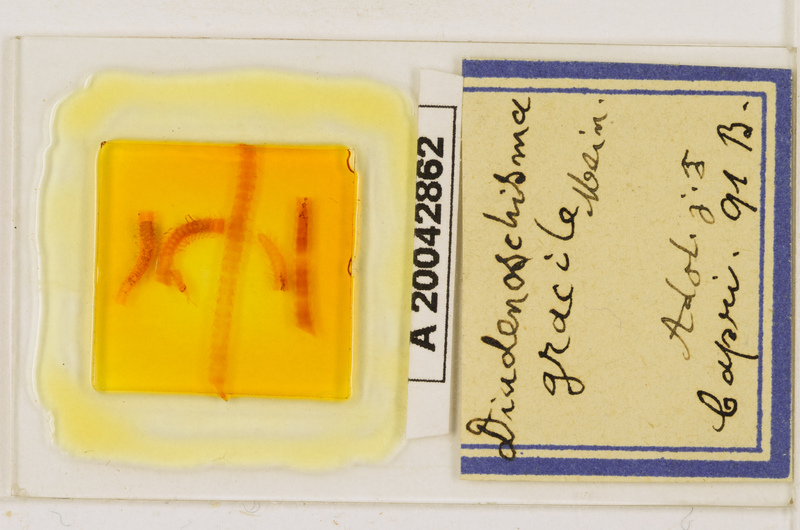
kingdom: Animalia
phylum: Arthropoda
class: Chilopoda
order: Geophilomorpha
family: Himantariidae
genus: Stigmatogaster
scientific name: Stigmatogaster
